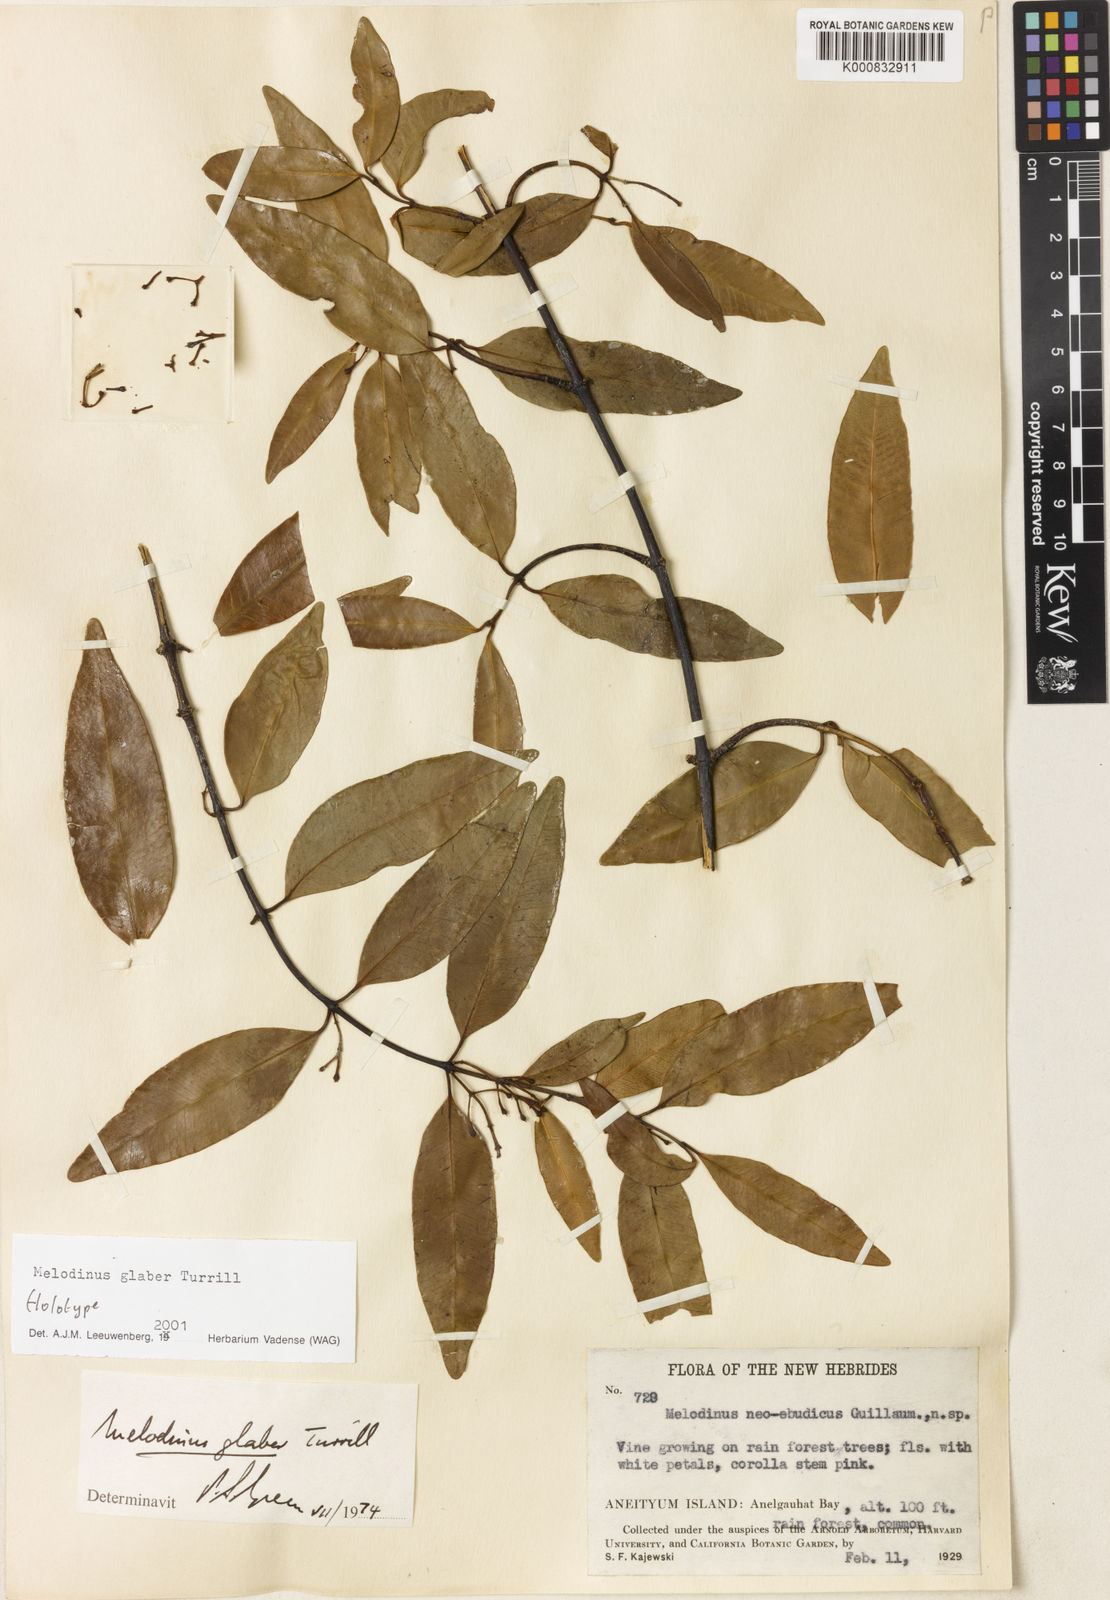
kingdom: Plantae
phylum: Tracheophyta
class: Magnoliopsida
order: Gentianales
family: Apocynaceae
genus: Melodinus
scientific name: Melodinus glaber
